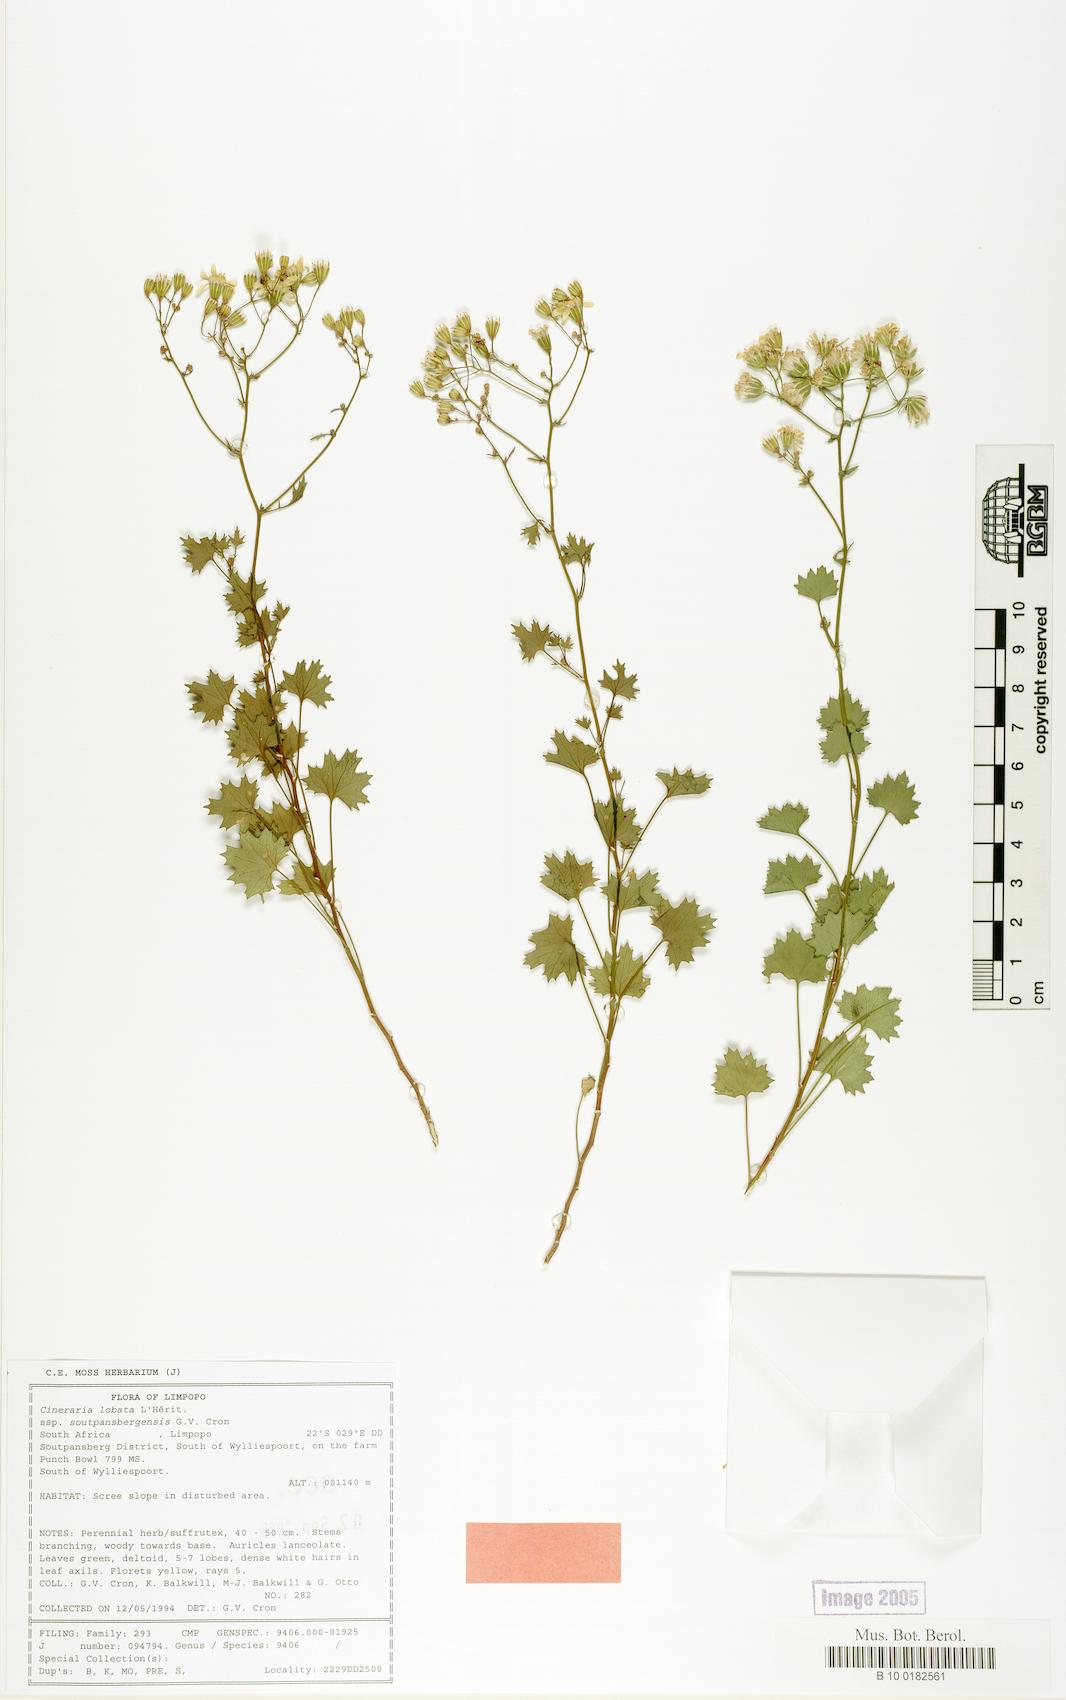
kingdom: Plantae
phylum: Tracheophyta
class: Magnoliopsida
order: Asterales
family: Asteraceae
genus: Cineraria
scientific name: Cineraria lobata
